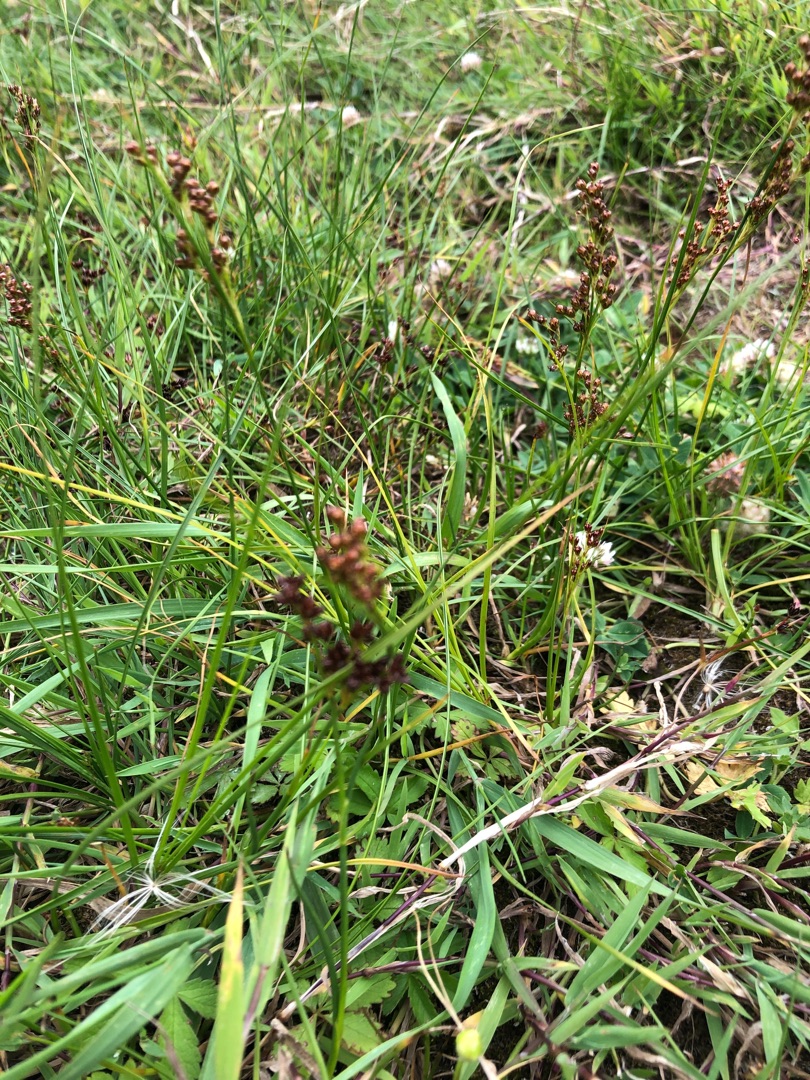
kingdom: Plantae
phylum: Tracheophyta
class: Liliopsida
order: Poales
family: Juncaceae
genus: Juncus
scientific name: Juncus compressus
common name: Fladstrået siv
